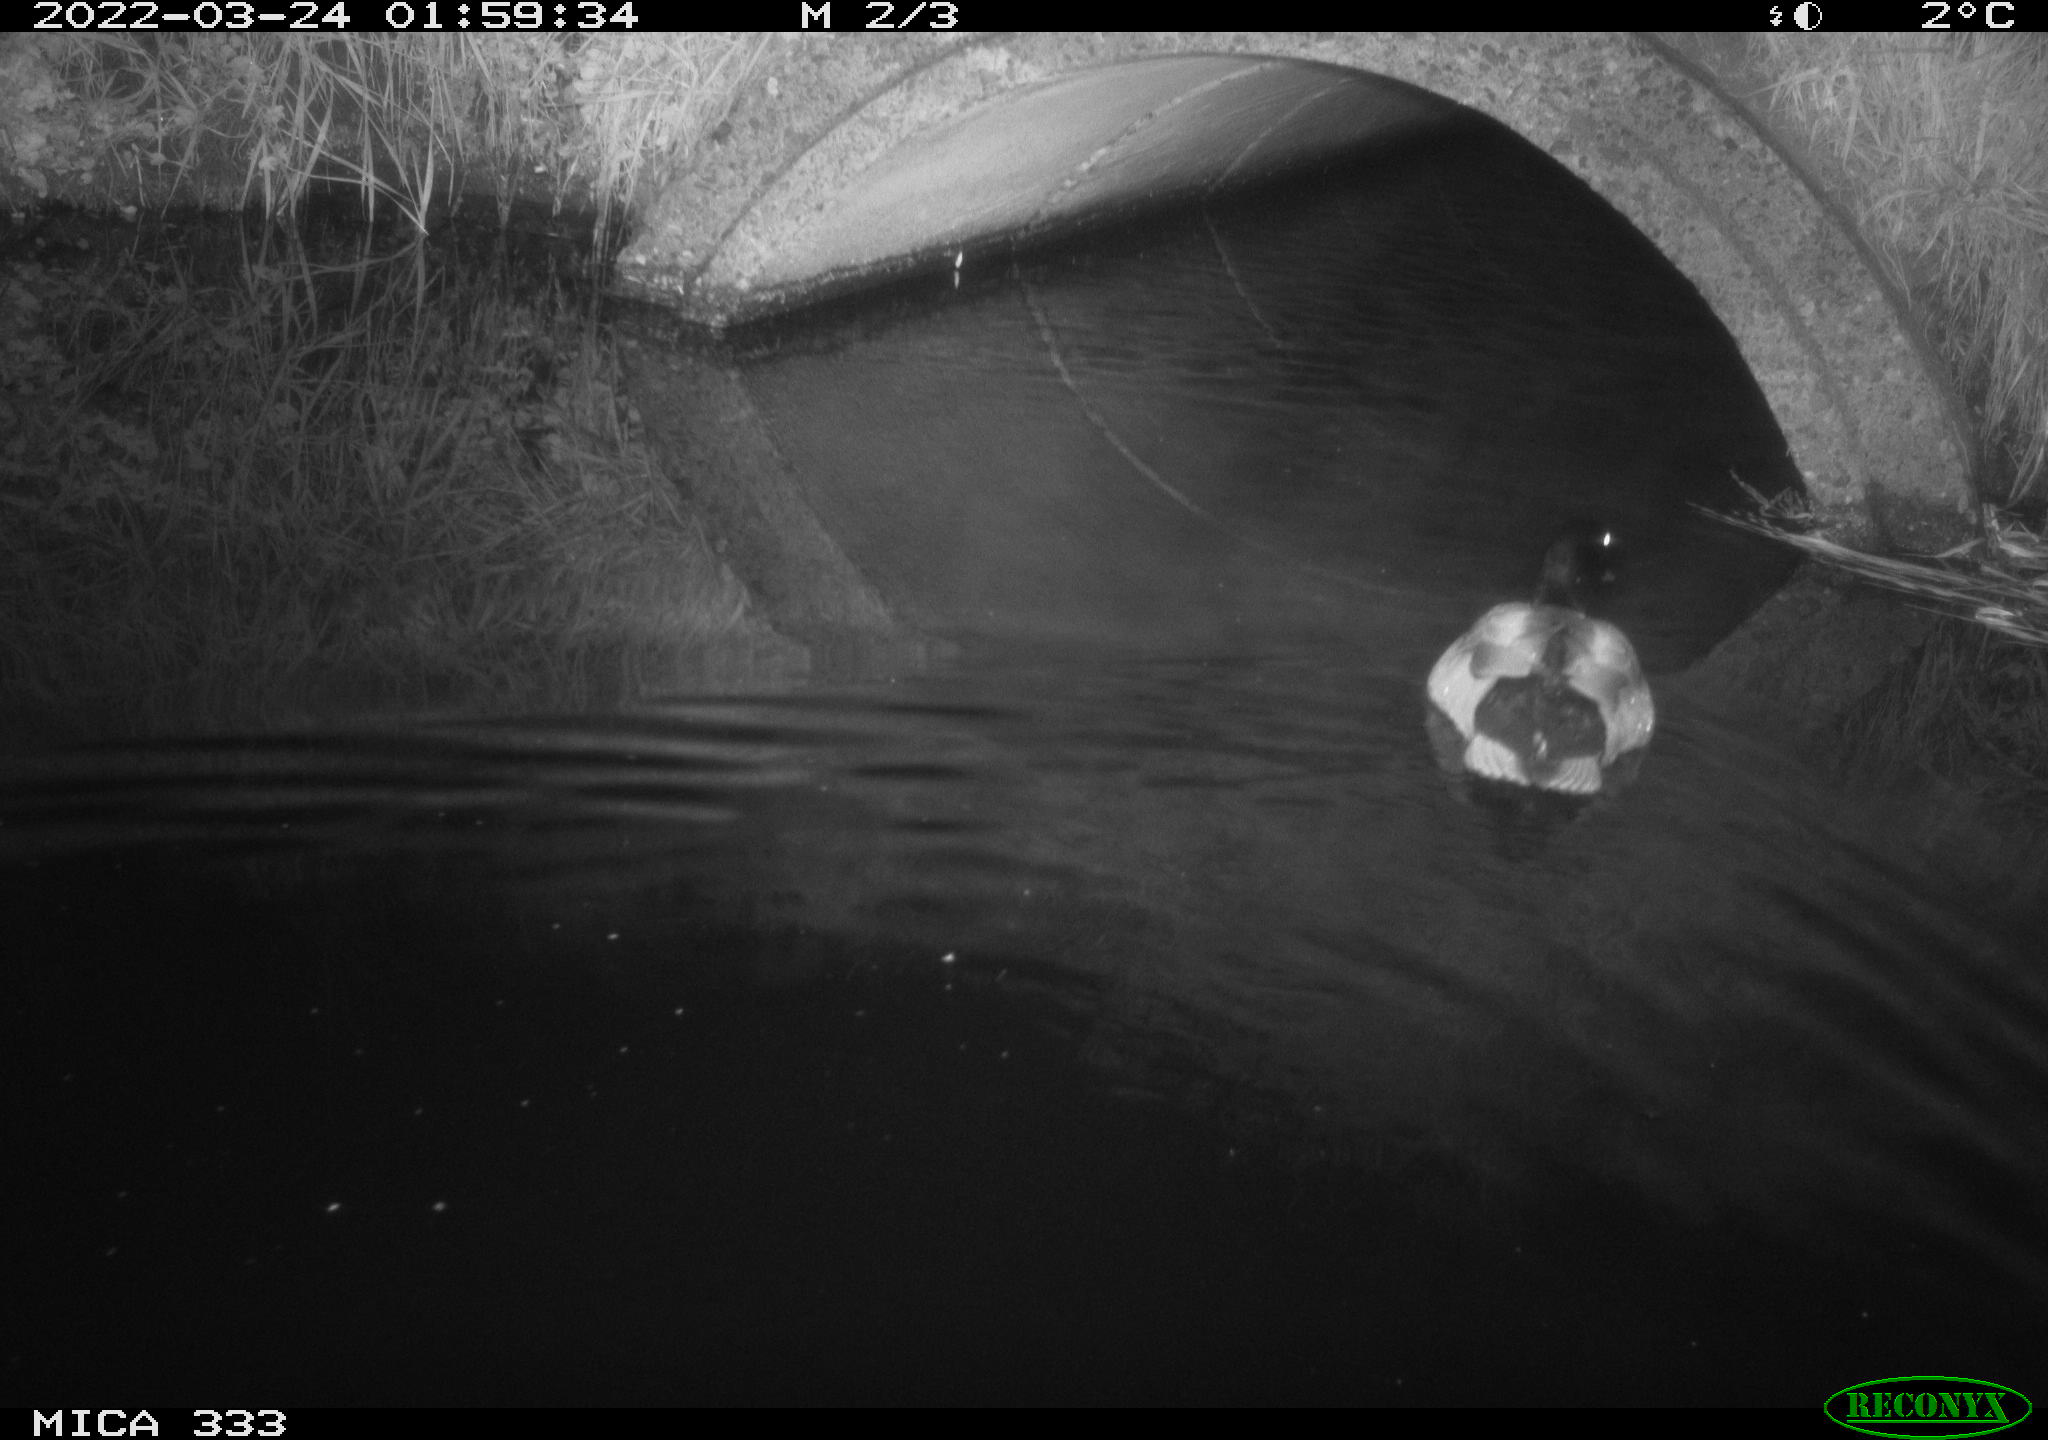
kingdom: Animalia
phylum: Chordata
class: Aves
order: Anseriformes
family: Anatidae
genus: Anas
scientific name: Anas platyrhynchos
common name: Mallard
